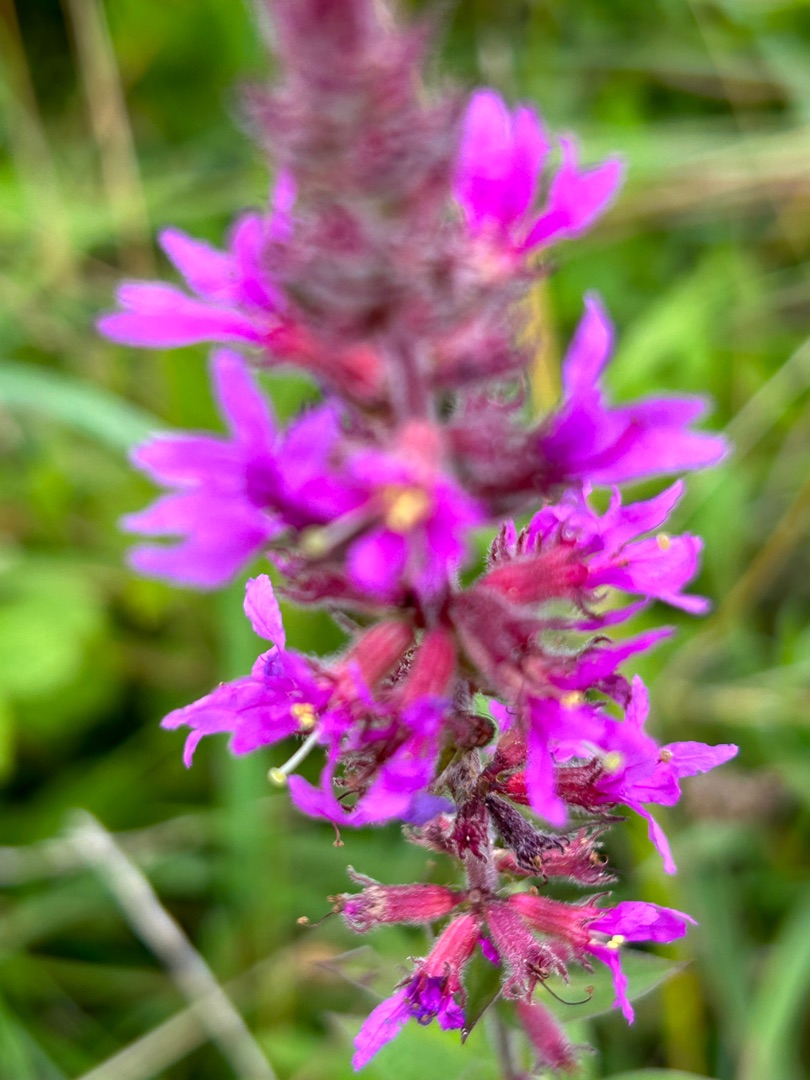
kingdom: Plantae
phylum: Tracheophyta
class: Magnoliopsida
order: Myrtales
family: Lythraceae
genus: Lythrum
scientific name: Lythrum salicaria
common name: Kattehale
